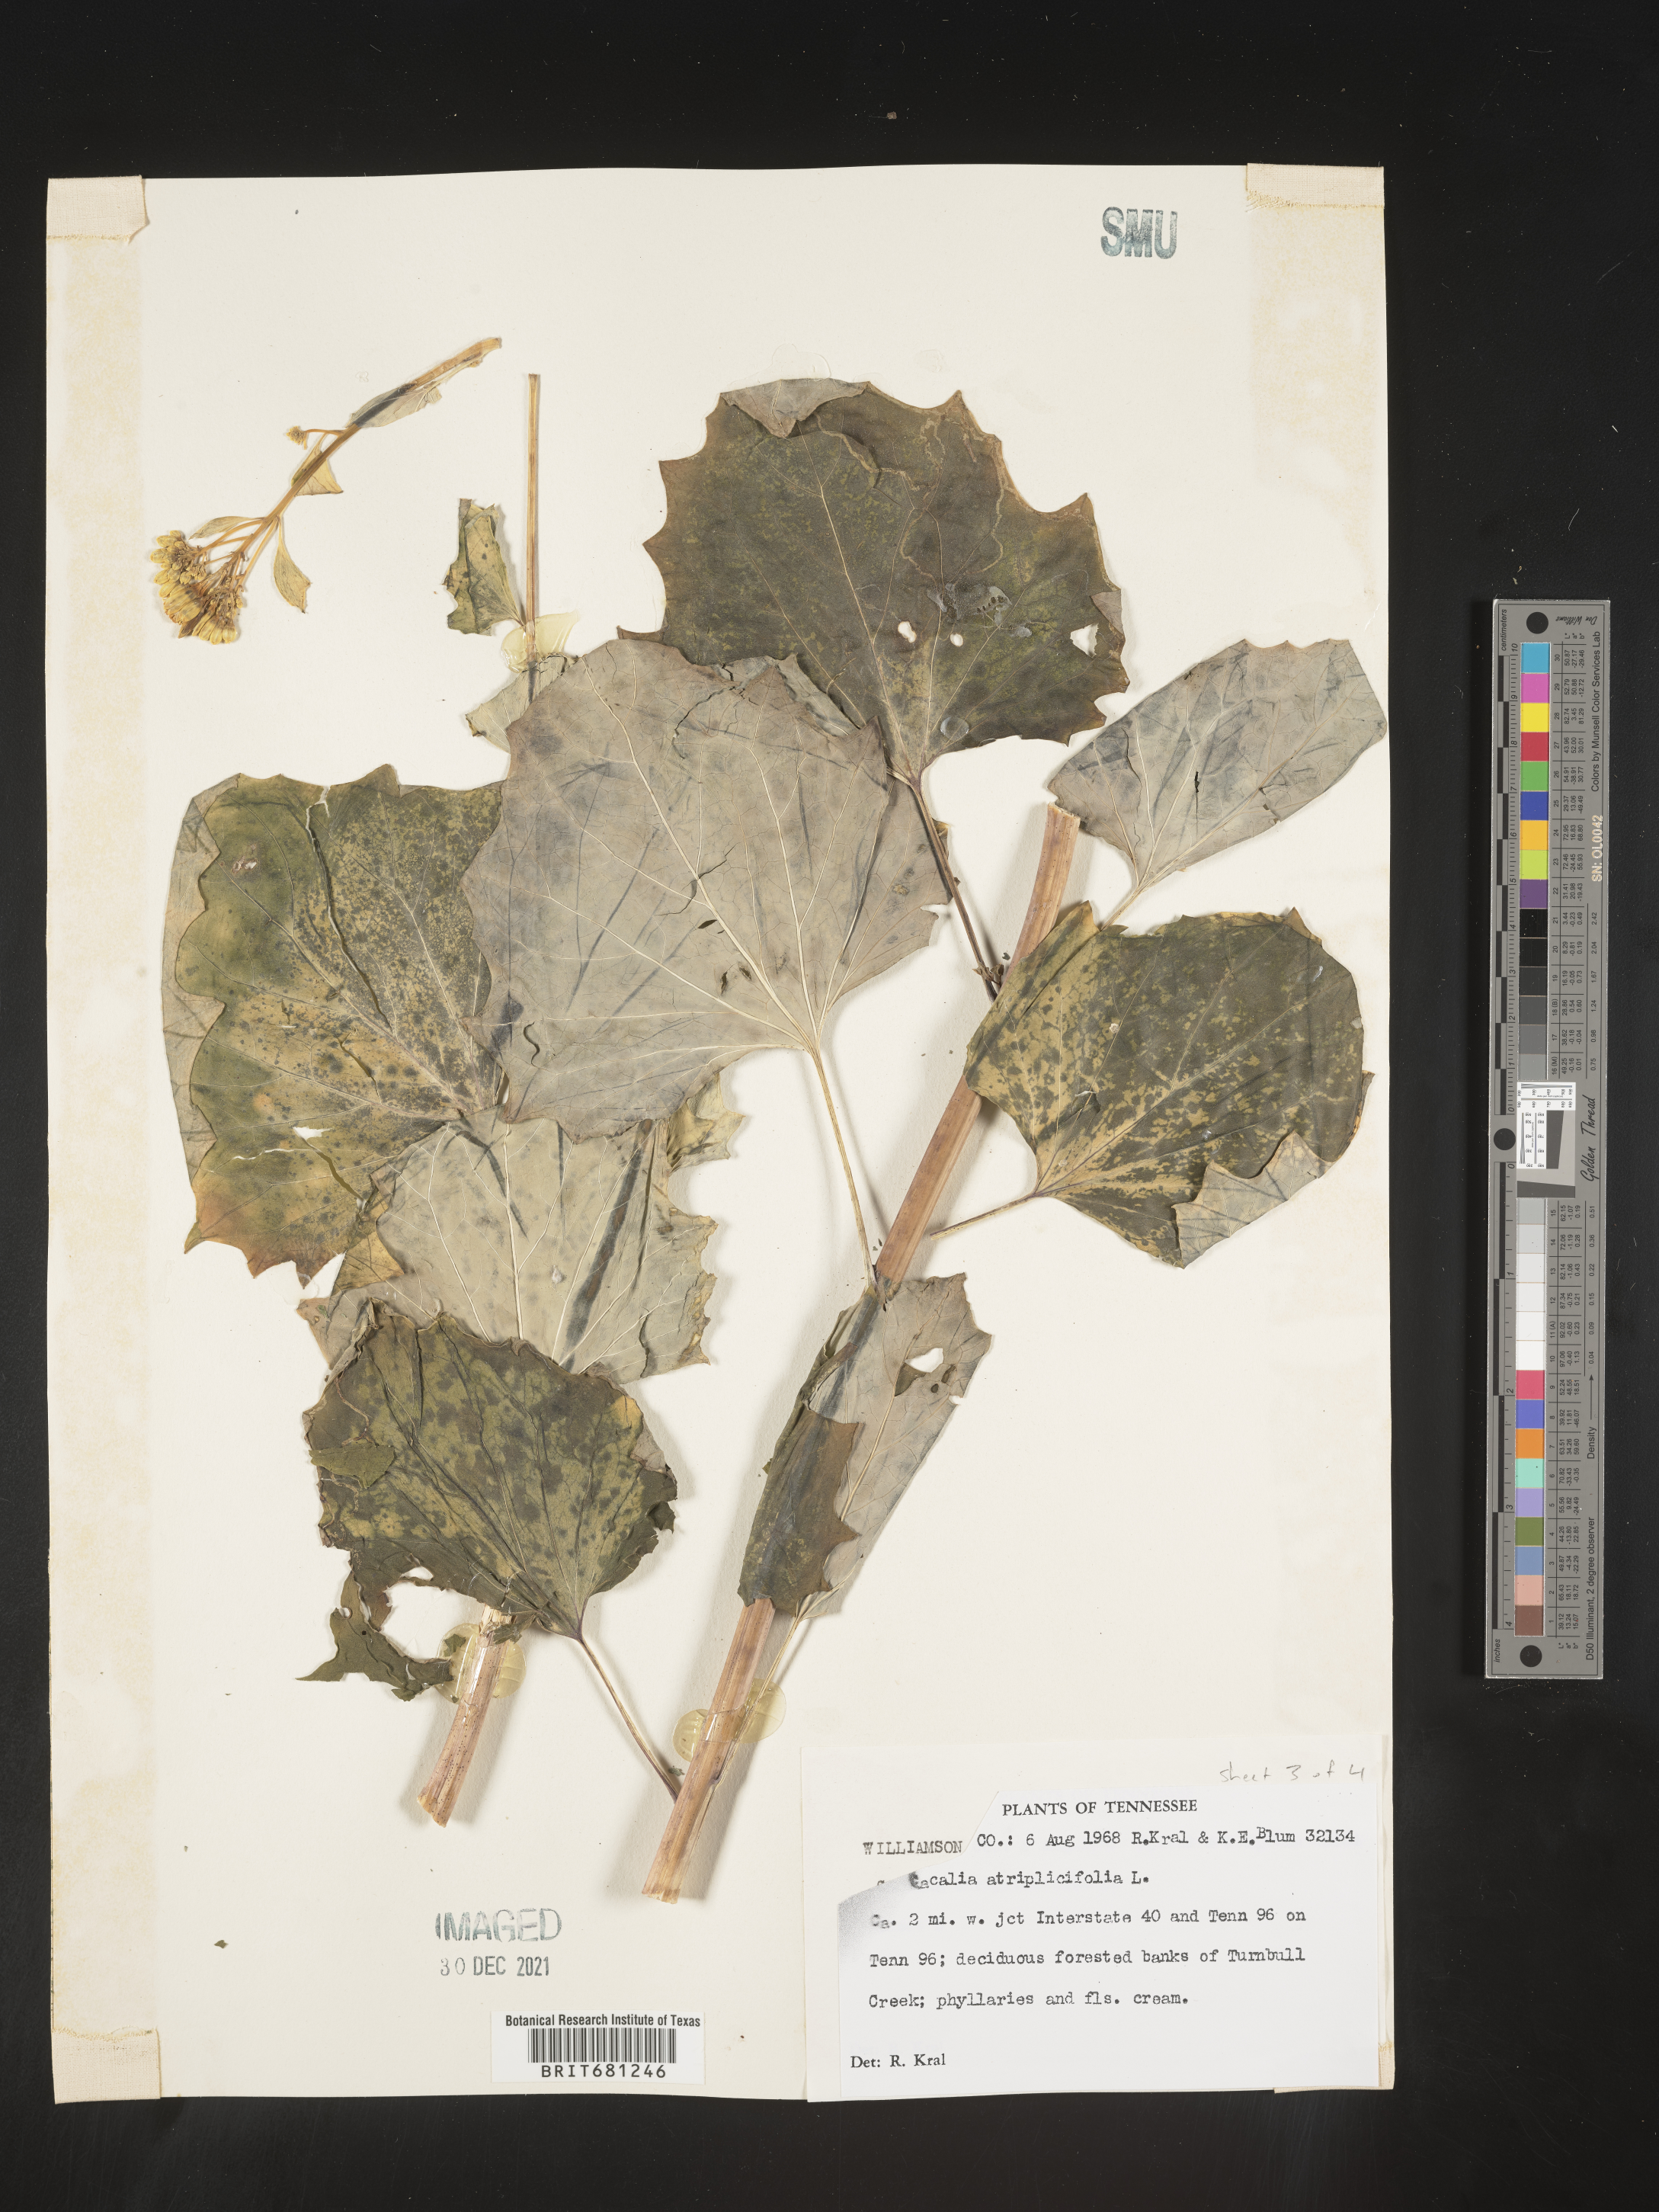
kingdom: Plantae
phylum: Tracheophyta
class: Magnoliopsida
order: Asterales
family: Asteraceae
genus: Arnoglossum
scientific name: Arnoglossum atriplicifolium
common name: Pale indian-plantain
